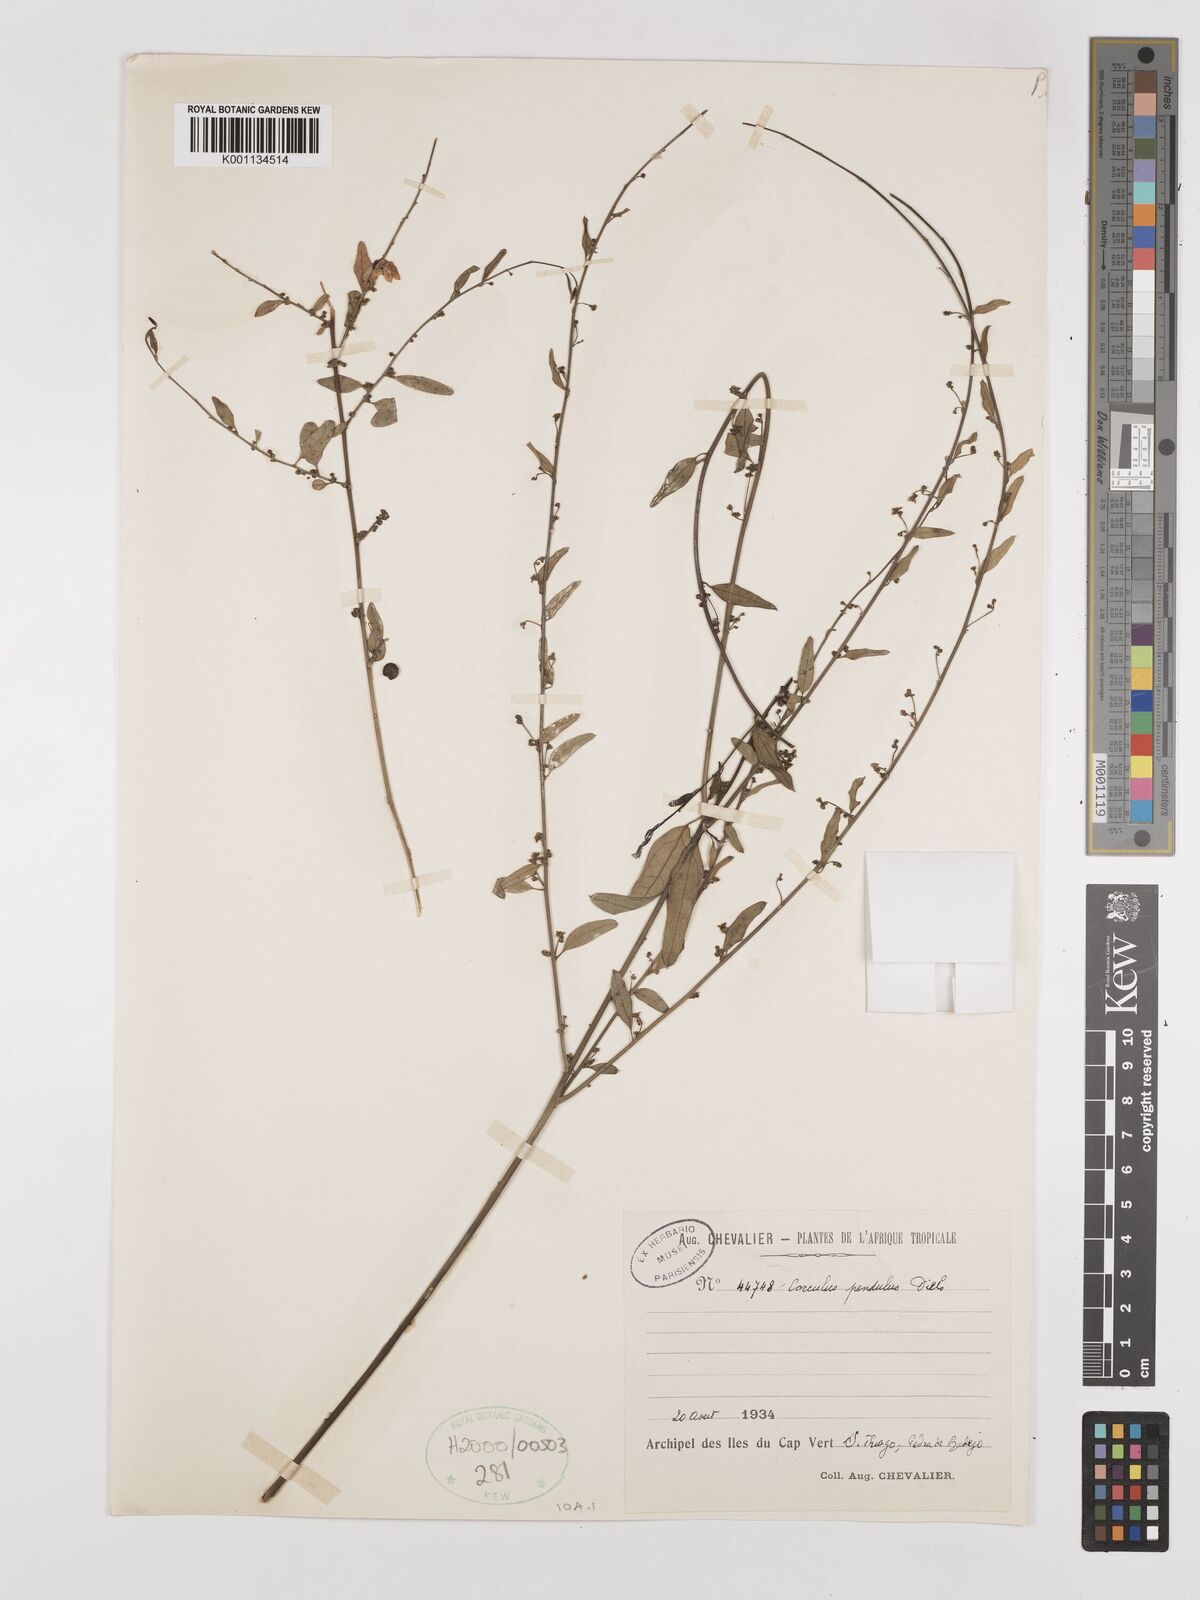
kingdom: Plantae
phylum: Tracheophyta
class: Magnoliopsida
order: Ranunculales
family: Menispermaceae
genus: Cocculus
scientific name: Cocculus pendulus
